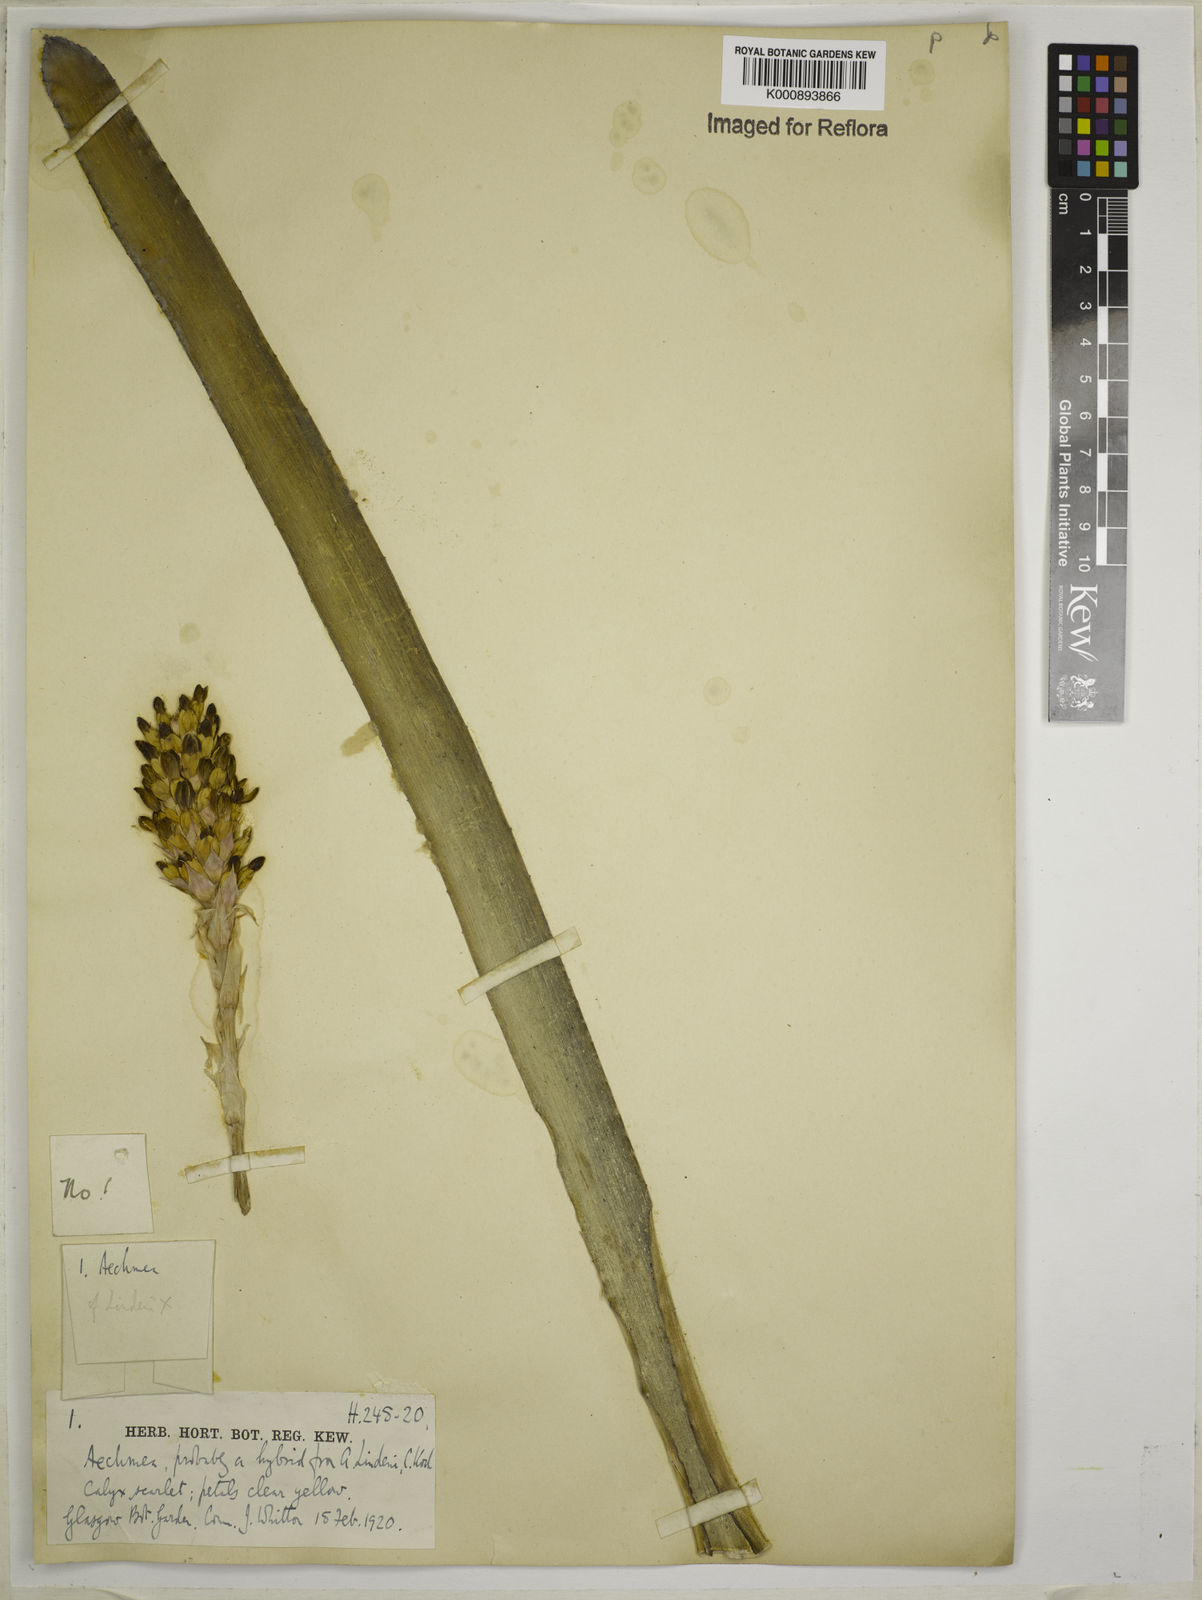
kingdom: Plantae
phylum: Tracheophyta
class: Liliopsida
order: Poales
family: Bromeliaceae
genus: Aechmea
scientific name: Aechmea
